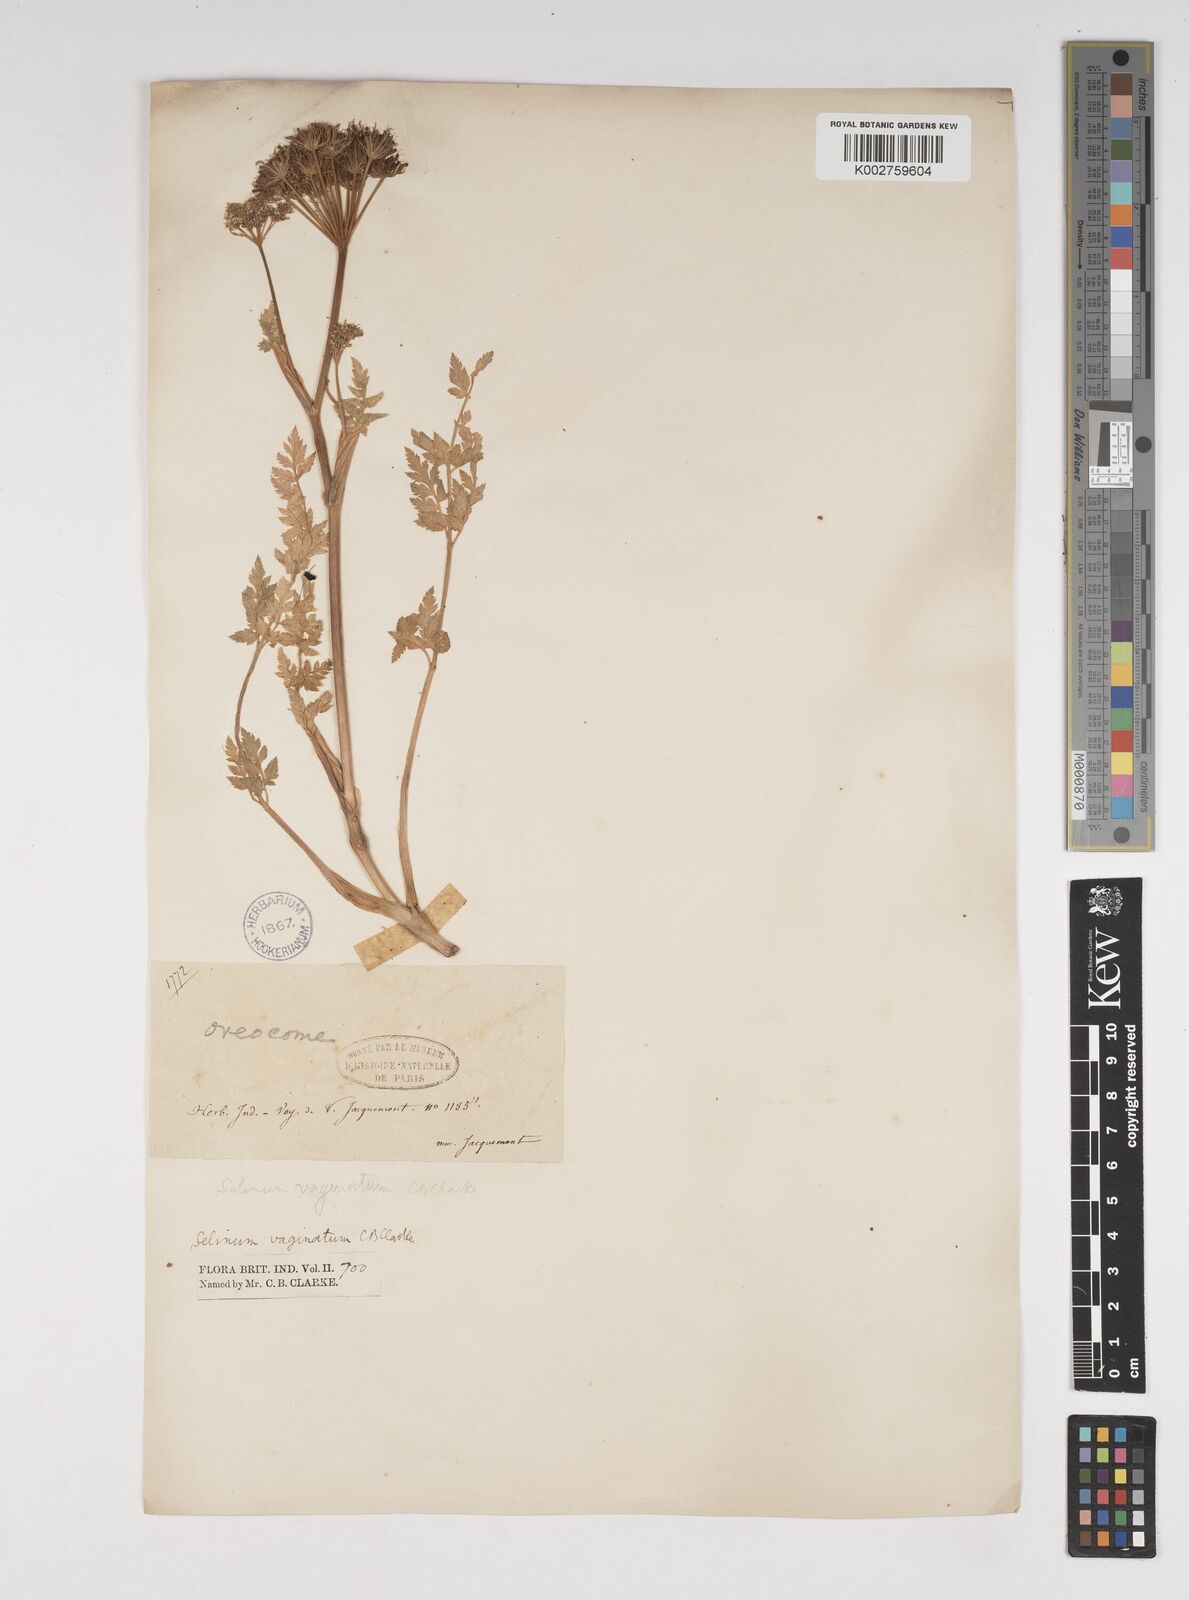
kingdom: Plantae
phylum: Tracheophyta
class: Magnoliopsida
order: Apiales
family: Apiaceae
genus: Selinum
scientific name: Selinum vaginatum
